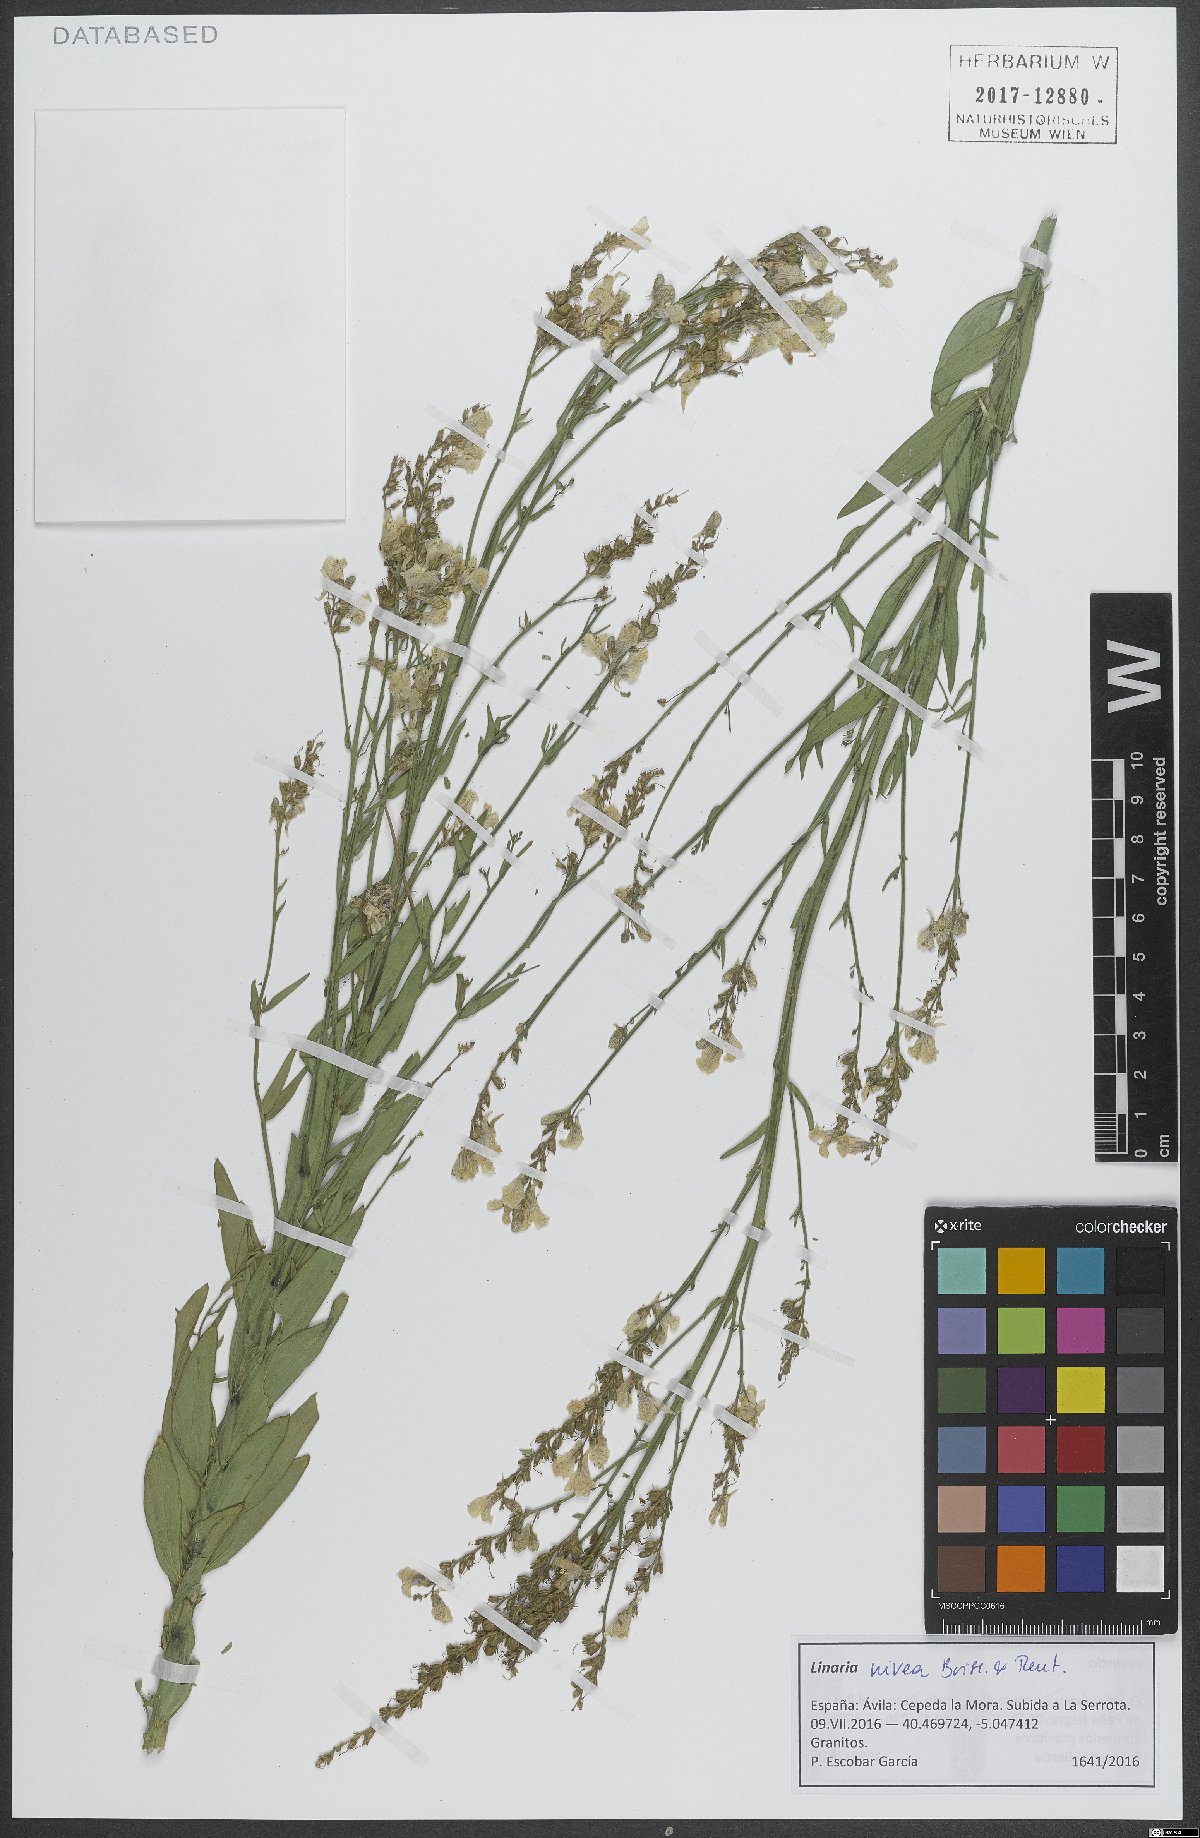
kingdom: Plantae
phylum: Tracheophyta
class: Magnoliopsida
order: Lamiales
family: Plantaginaceae
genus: Linaria
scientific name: Linaria nivea
